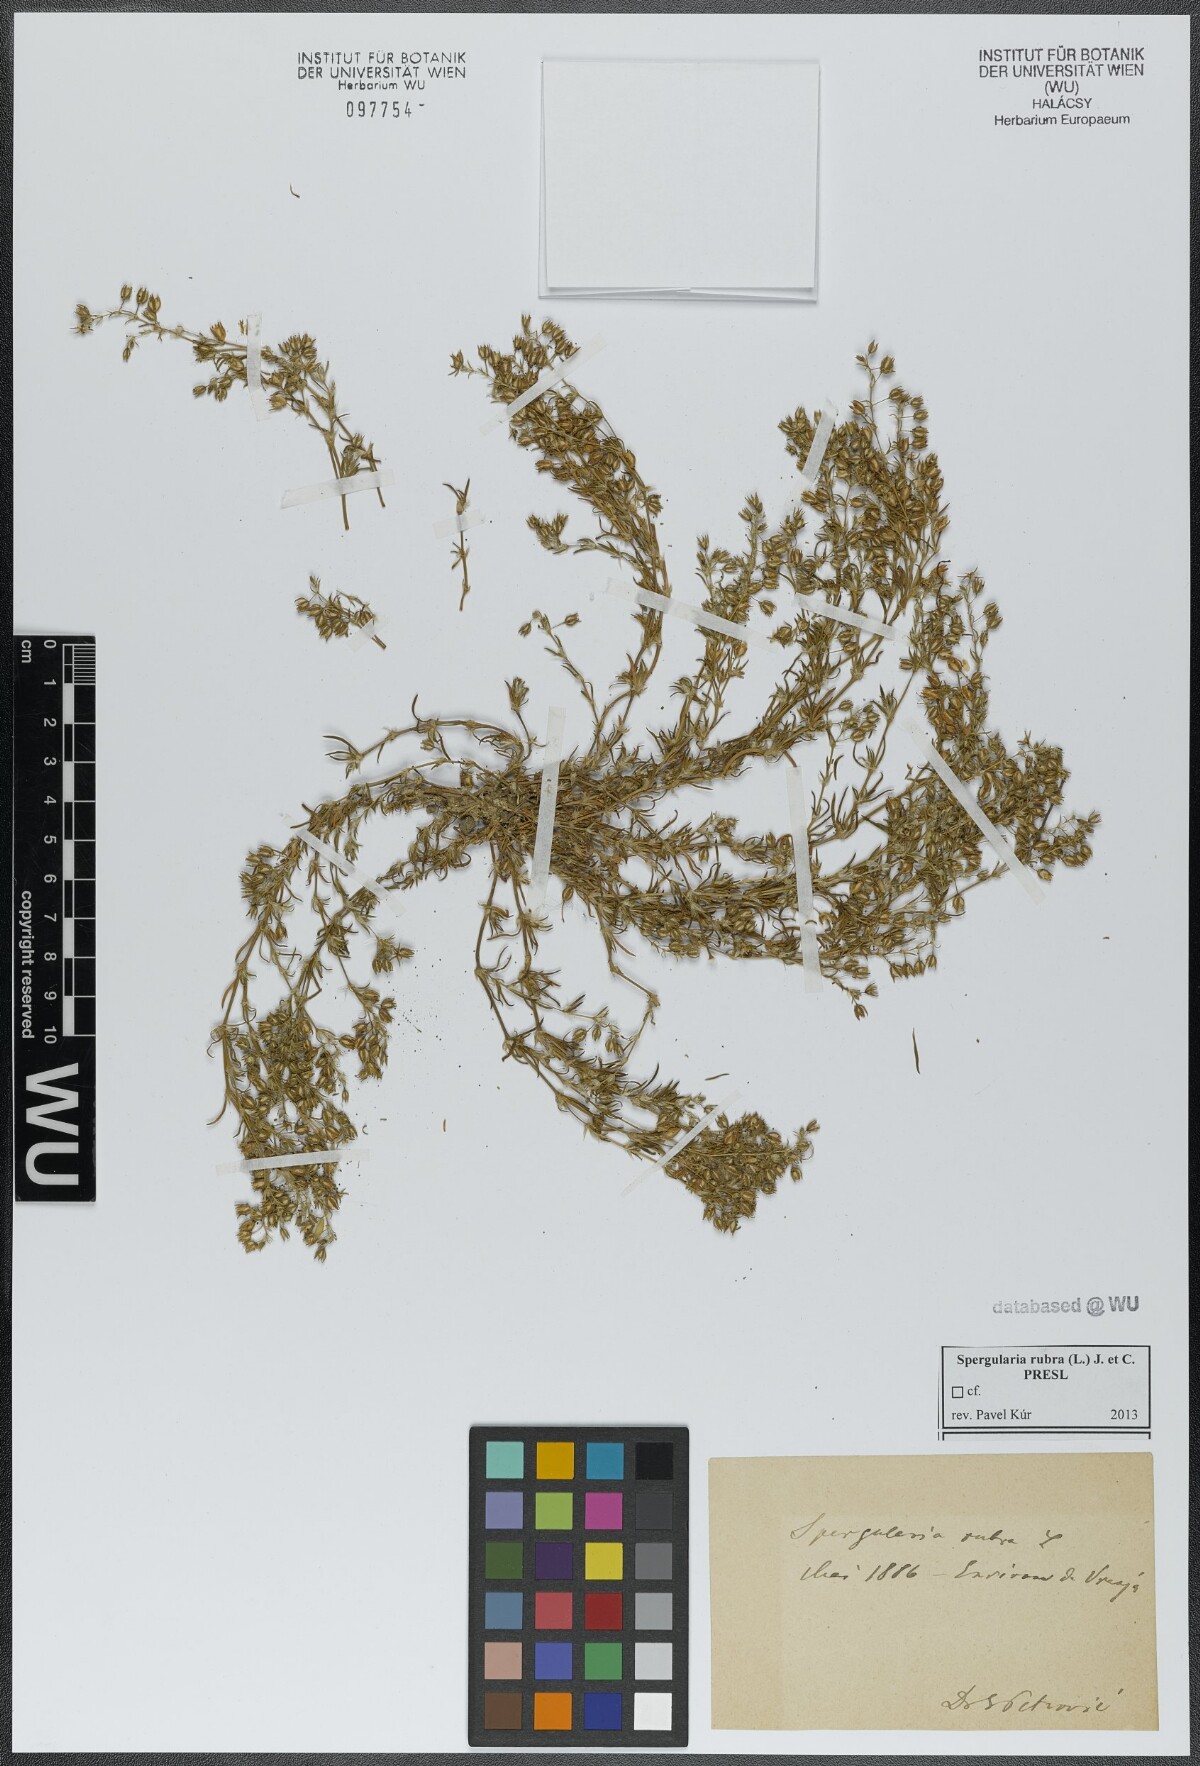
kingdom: Plantae
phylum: Tracheophyta
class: Magnoliopsida
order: Caryophyllales
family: Caryophyllaceae
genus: Spergularia
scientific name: Spergularia rubra
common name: Red sand-spurrey
